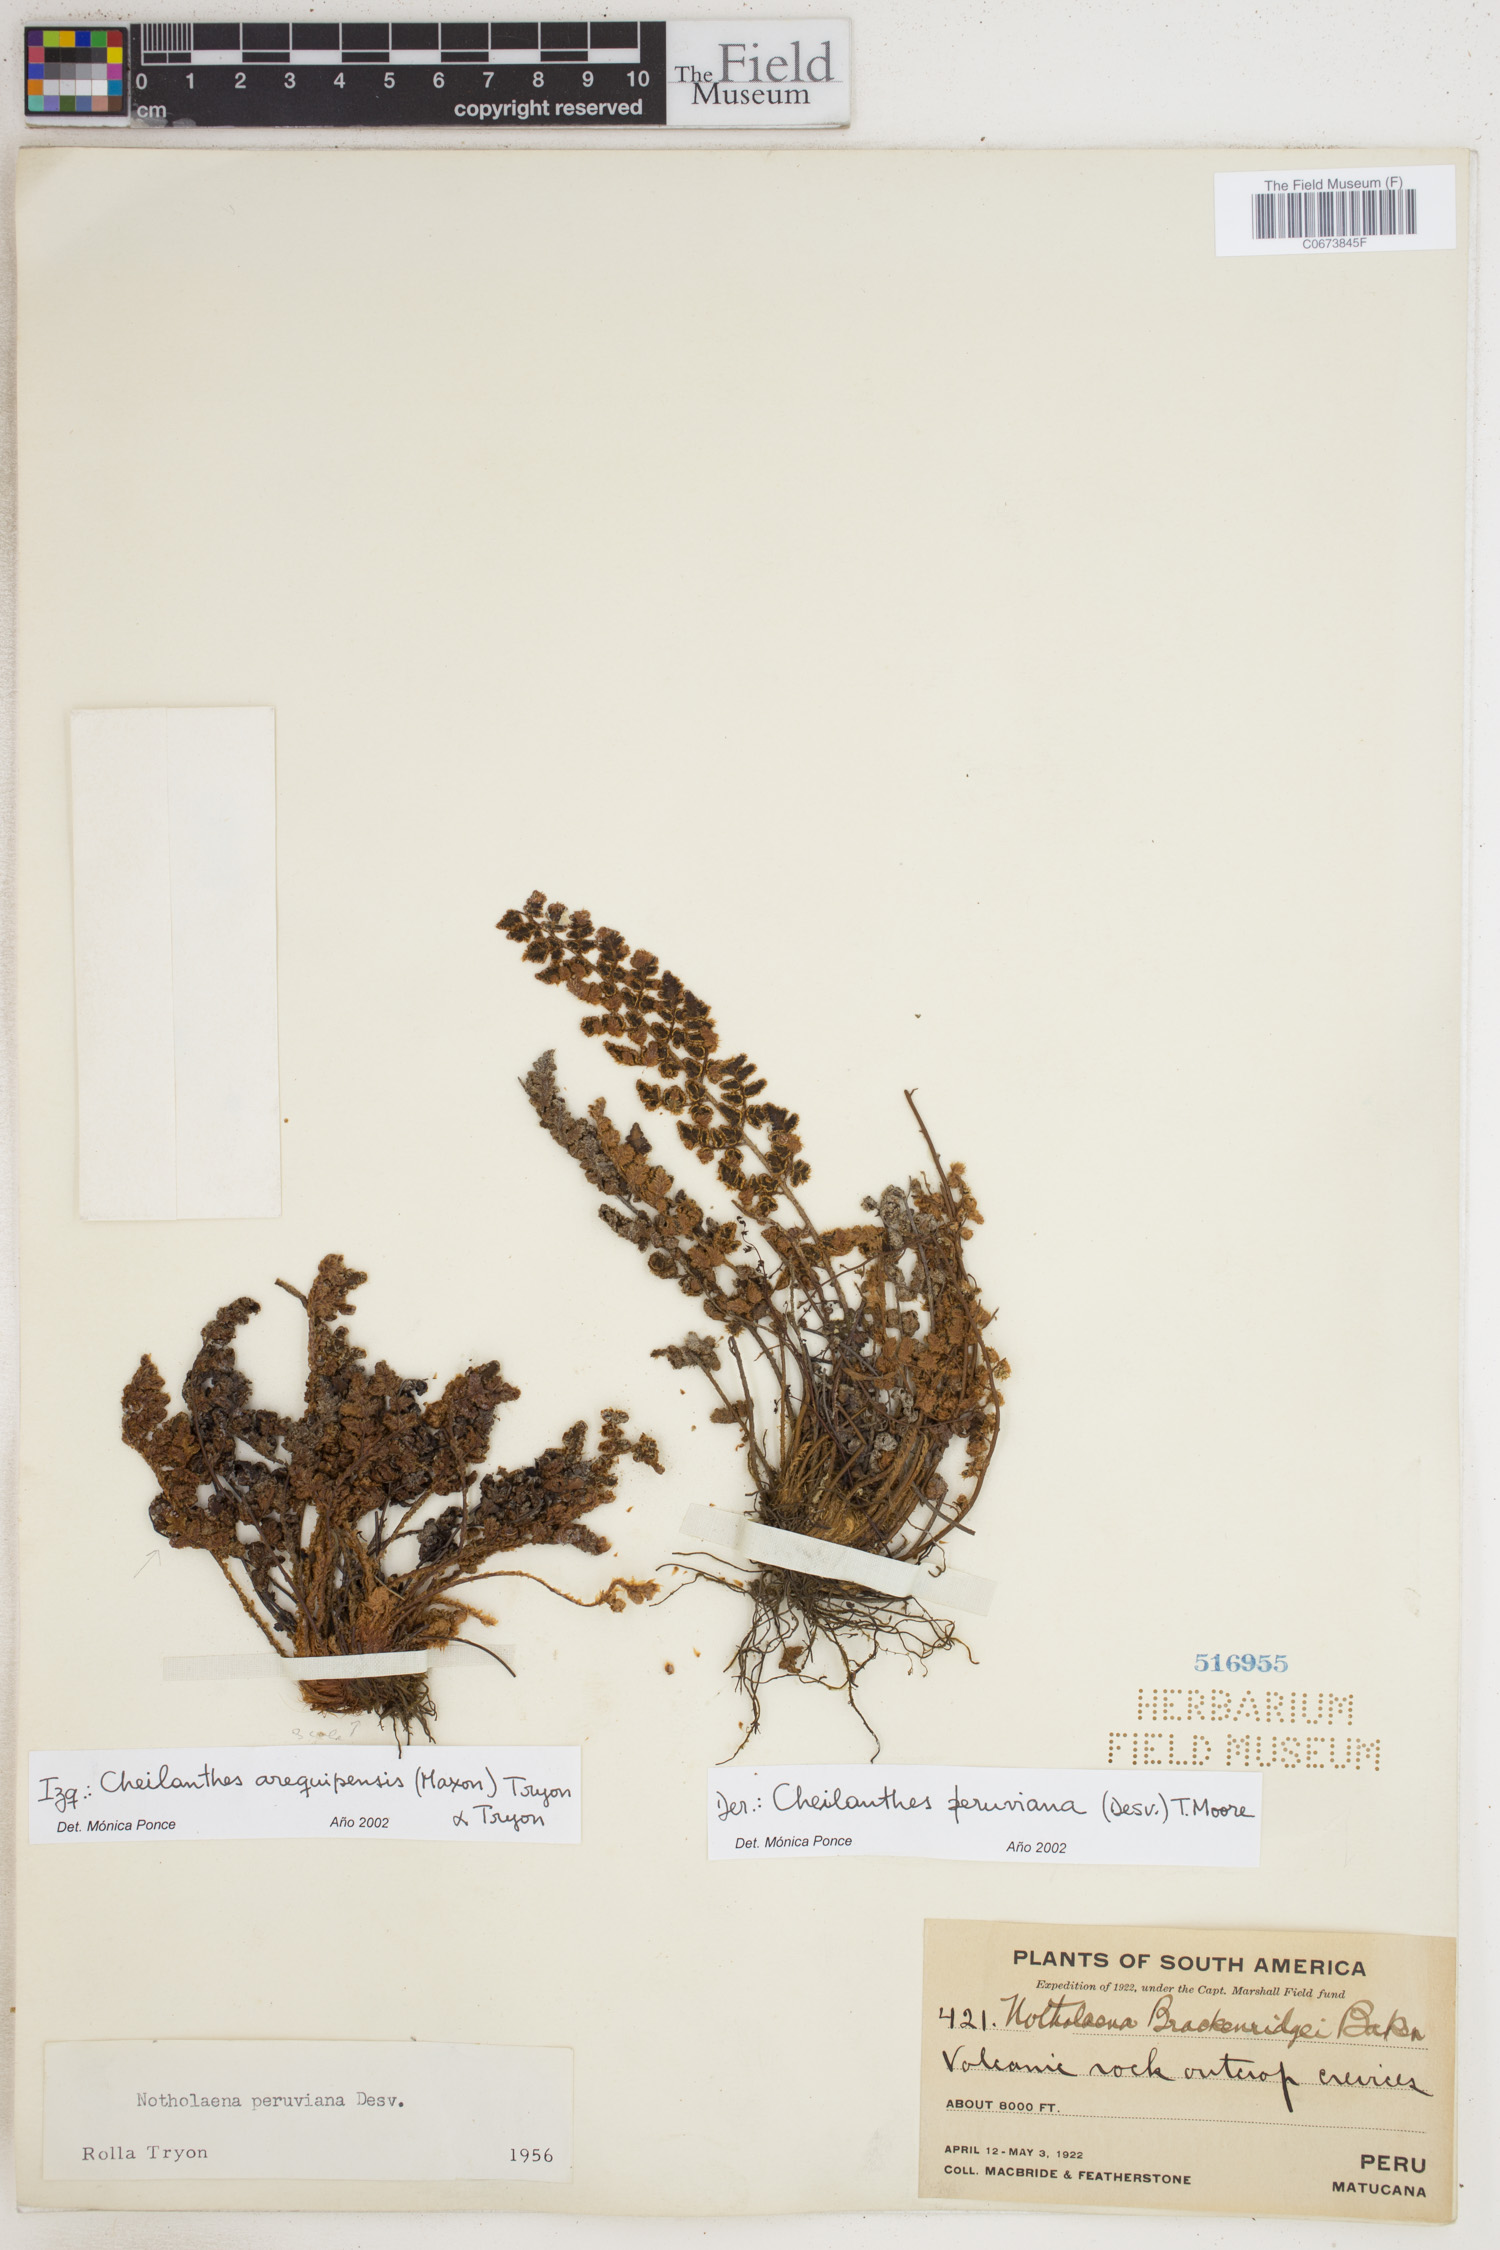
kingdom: Plantae
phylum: Tracheophyta
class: Polypodiopsida
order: Polypodiales
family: Pteridaceae
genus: Cheilanthes
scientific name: Cheilanthes peruviana
